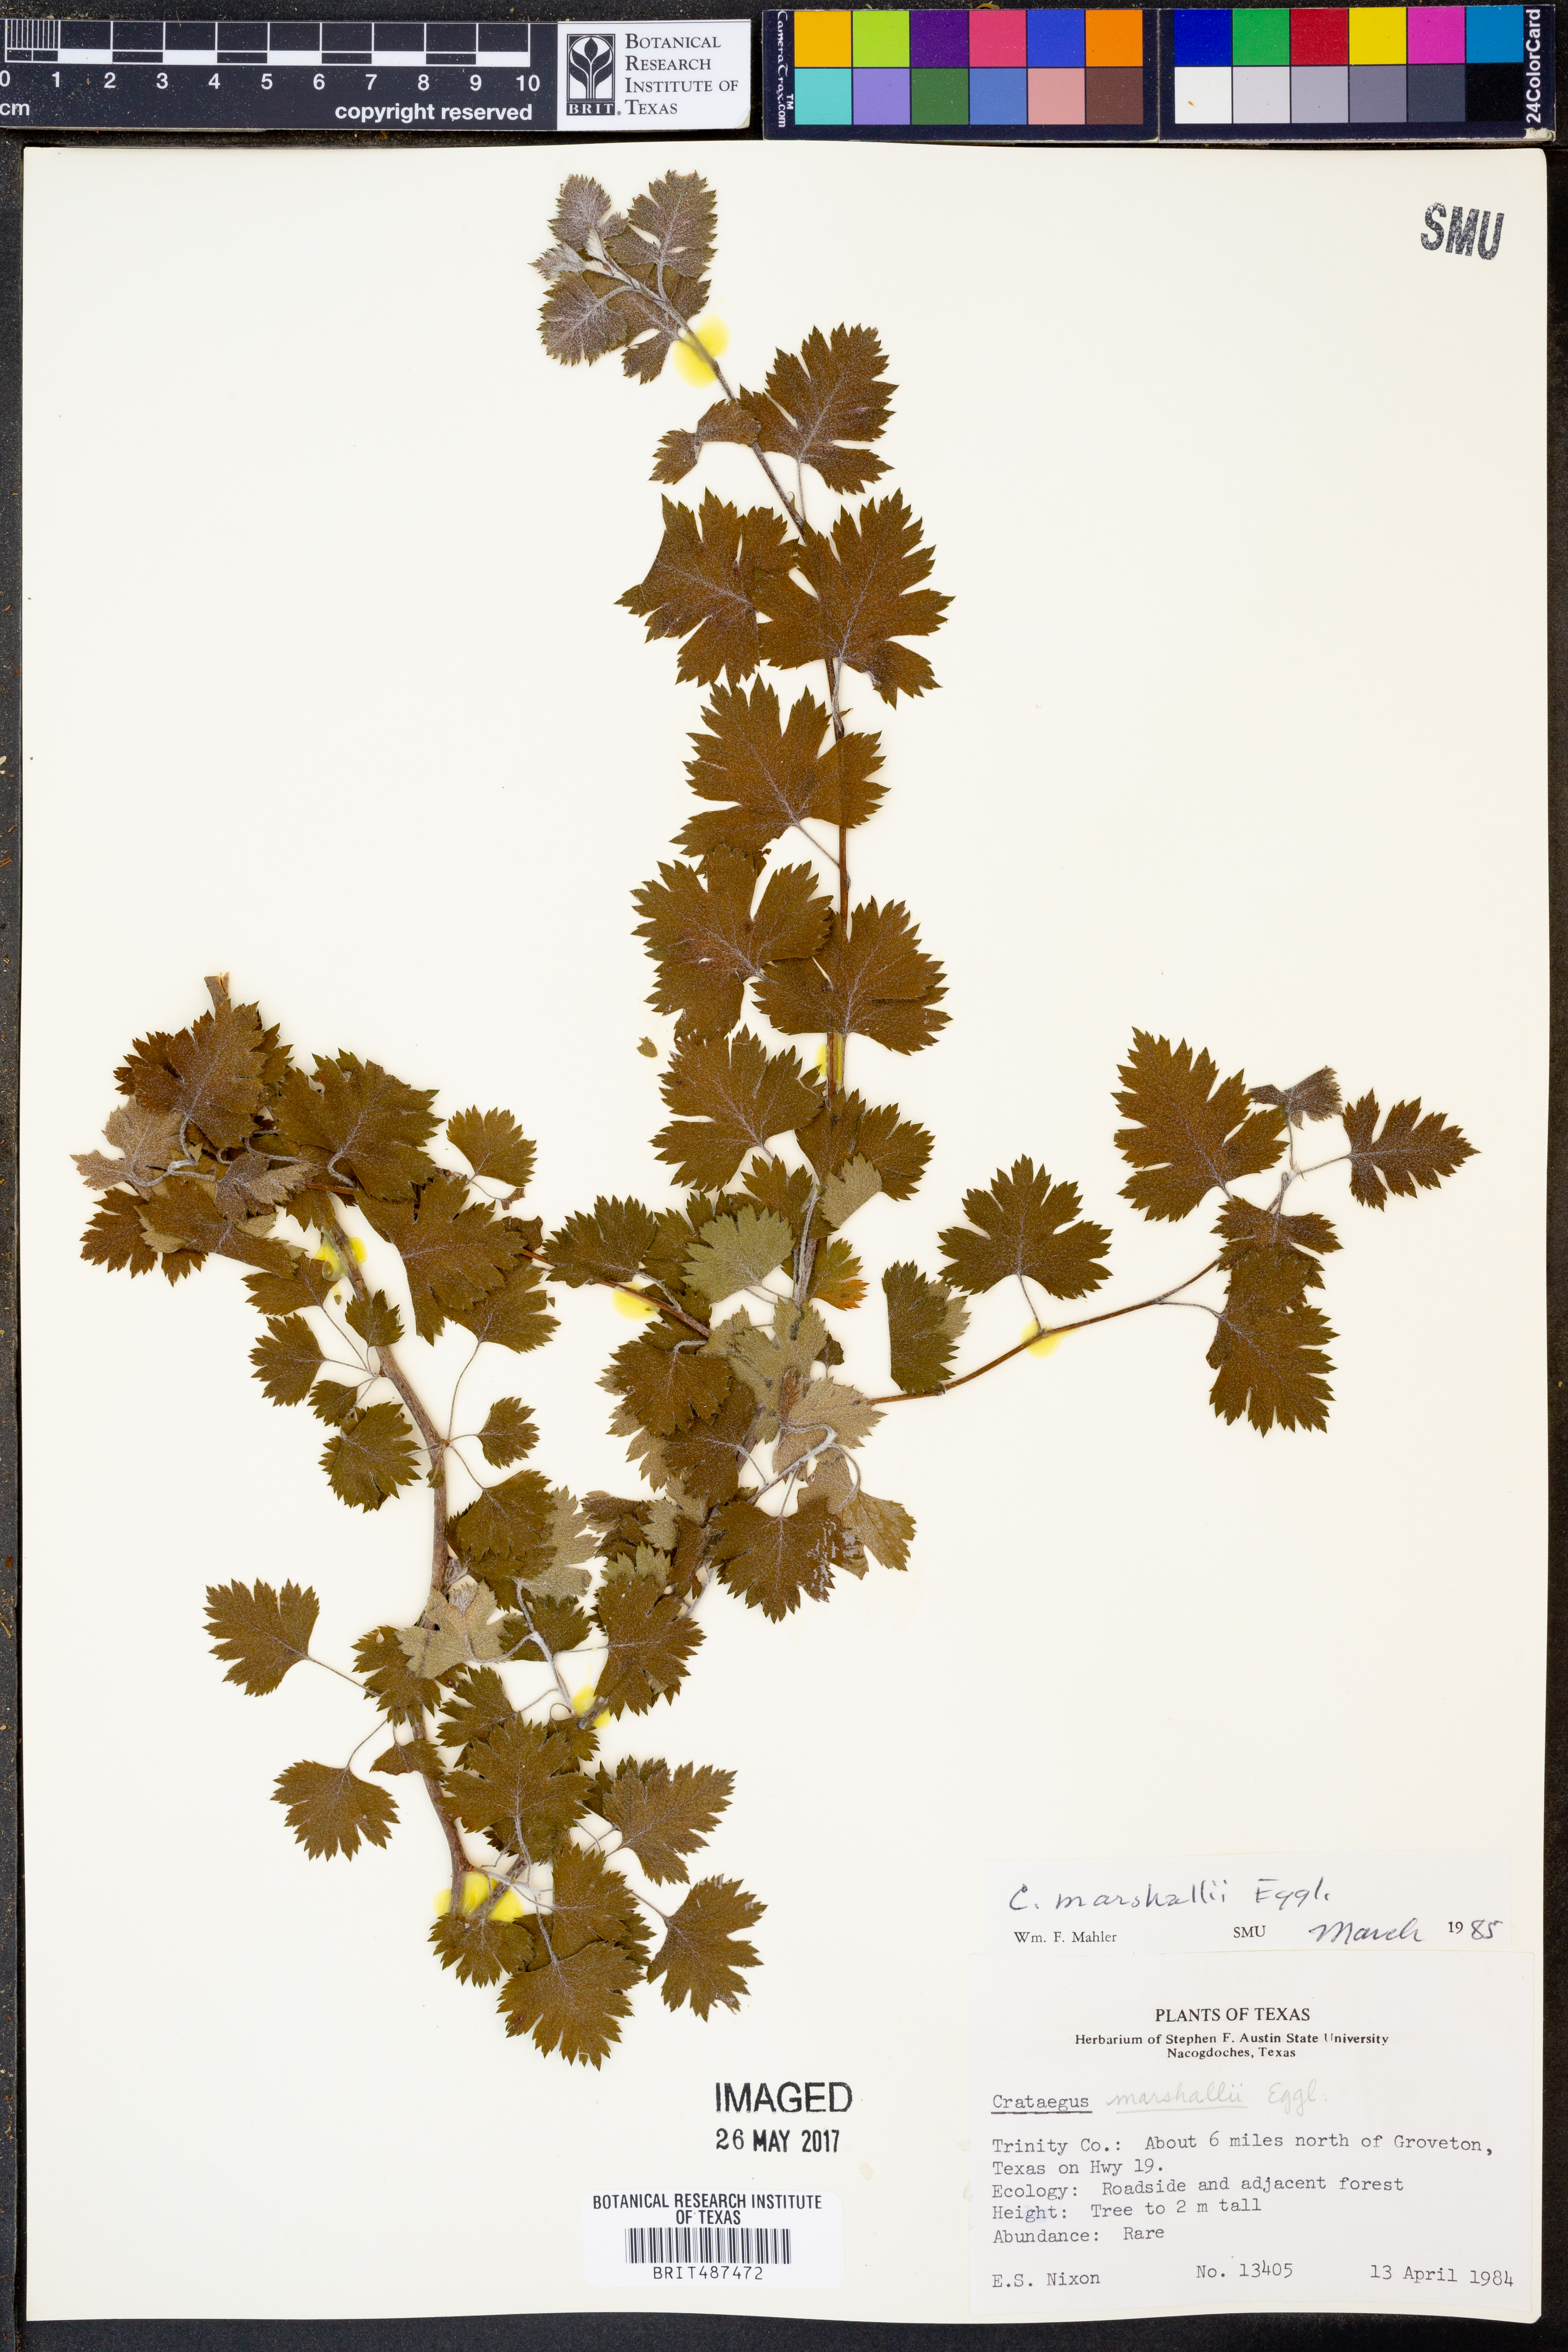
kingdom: Plantae
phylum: Tracheophyta
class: Magnoliopsida
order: Rosales
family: Rosaceae
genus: Crataegus
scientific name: Crataegus marshallii
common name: Parsley-hawthorn
